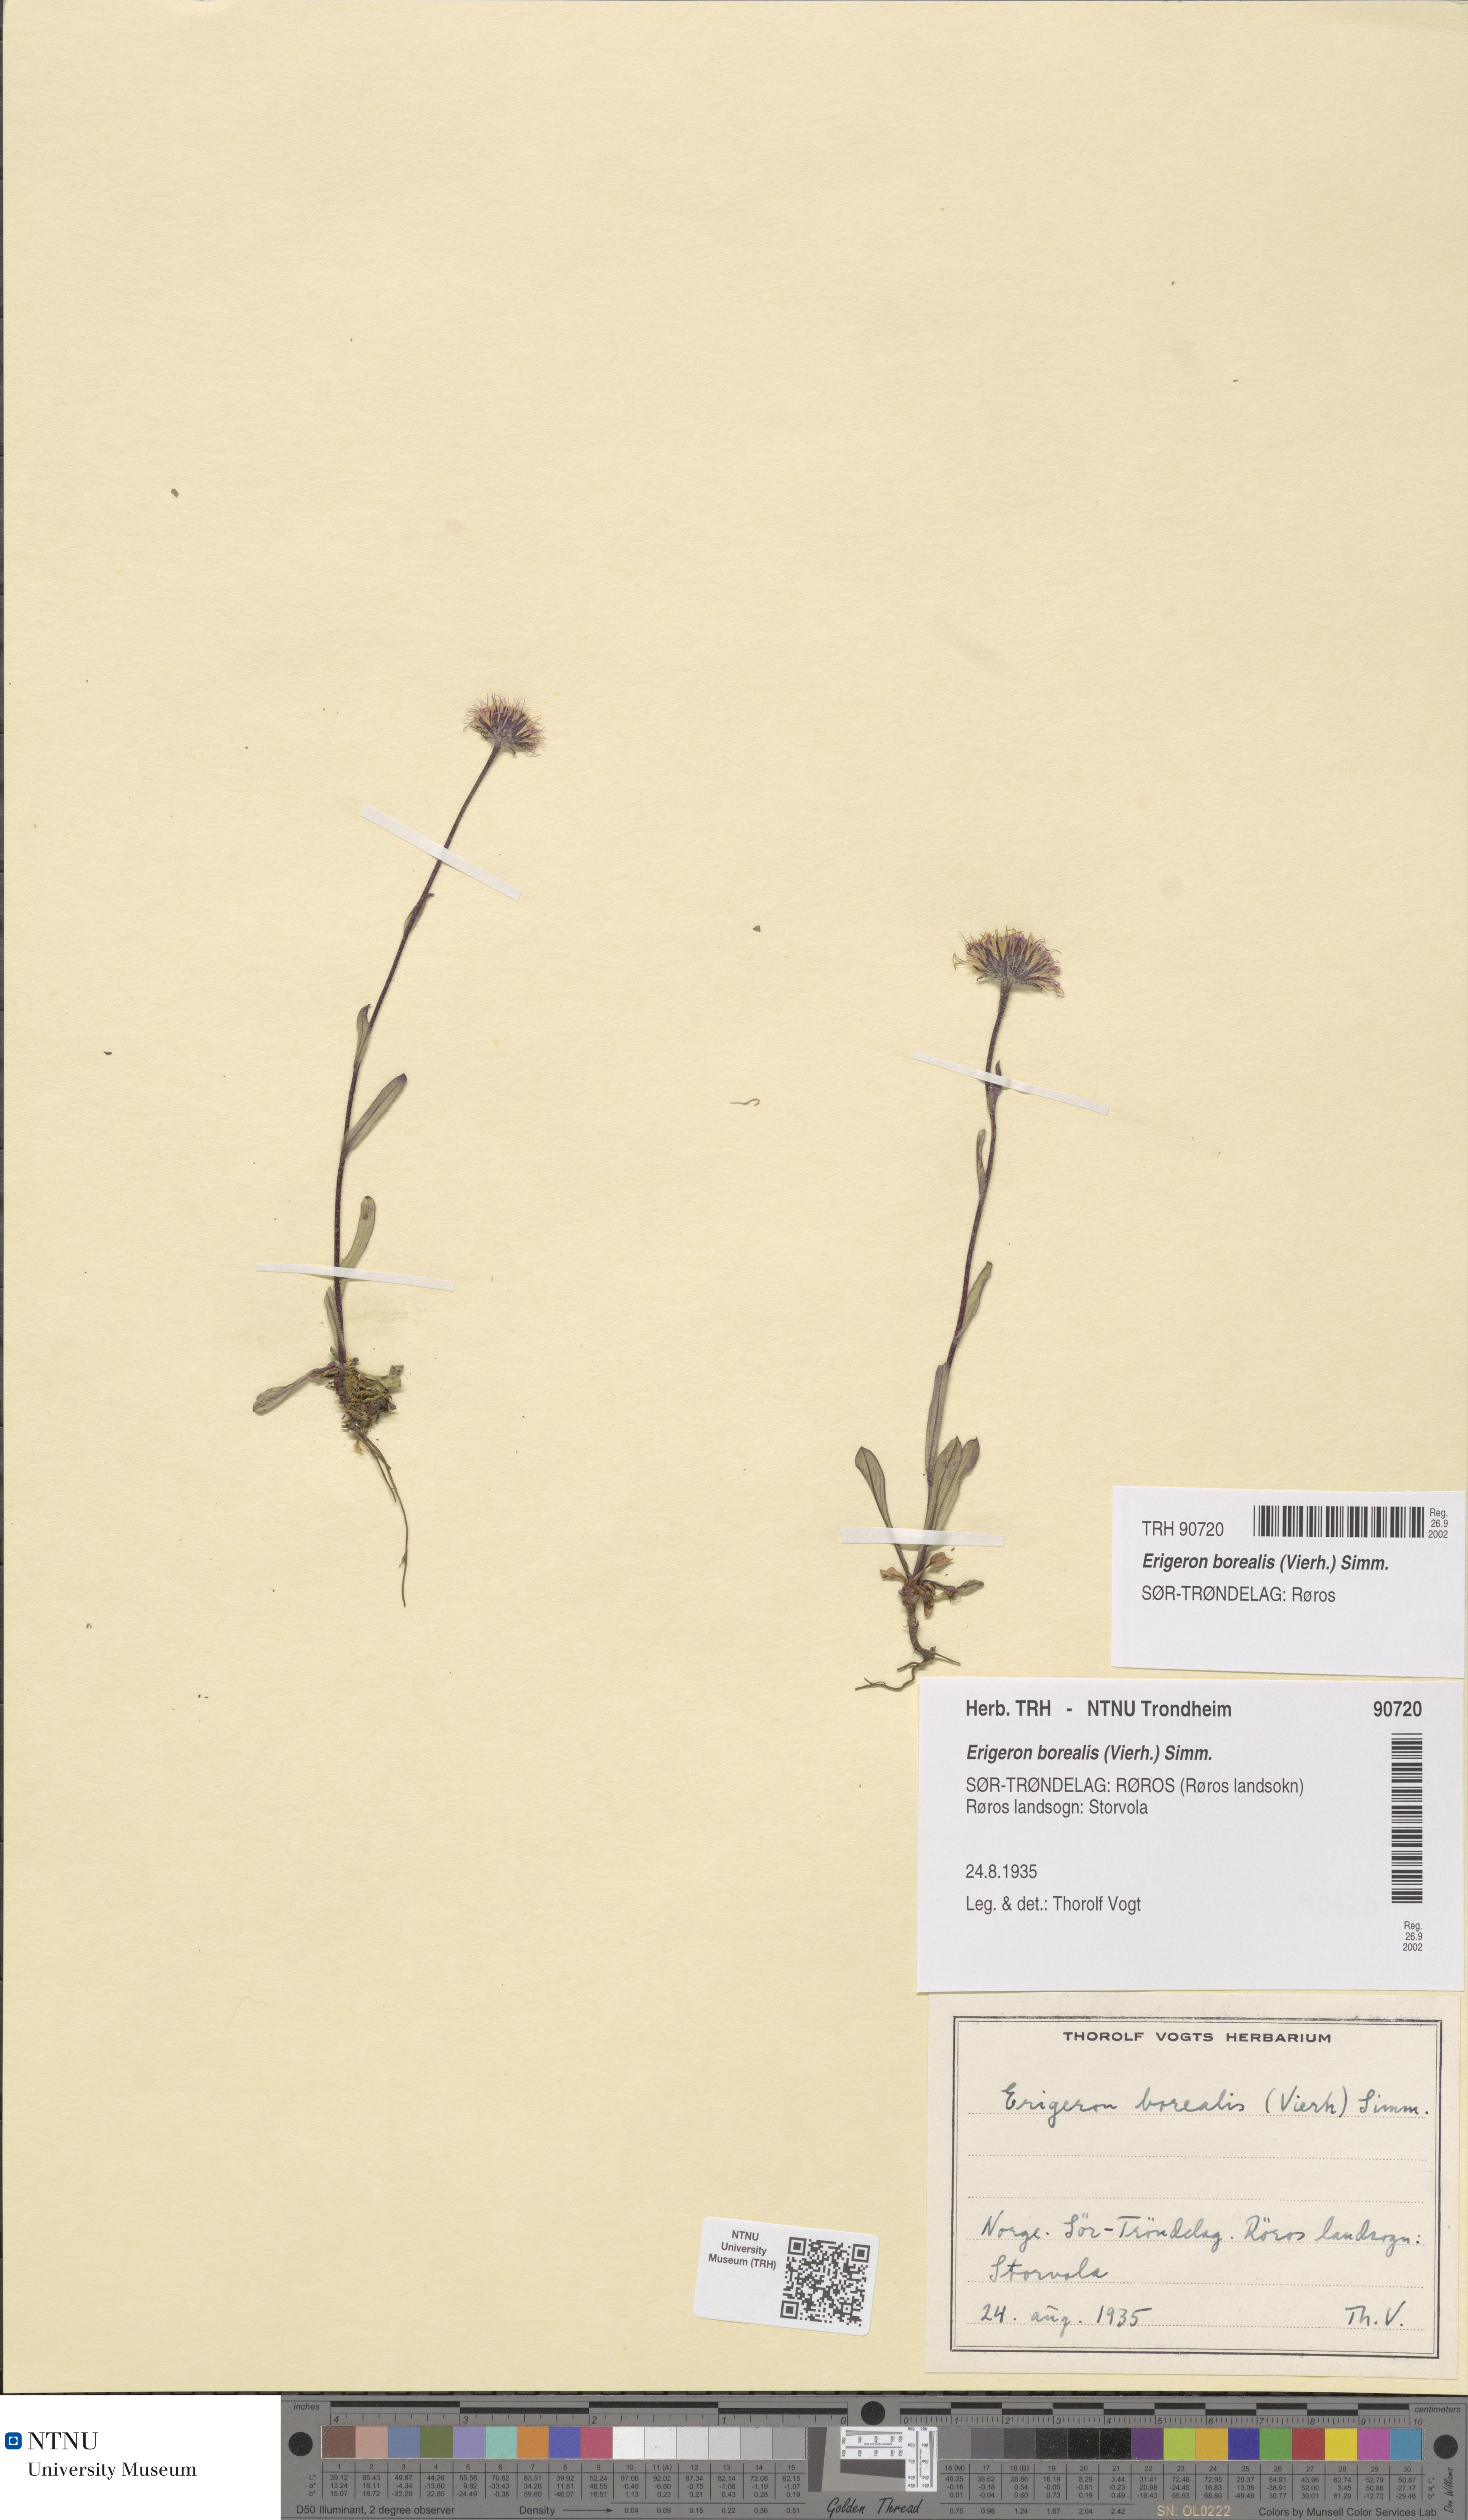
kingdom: Plantae
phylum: Tracheophyta
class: Magnoliopsida
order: Asterales
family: Asteraceae
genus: Erigeron
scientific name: Erigeron borealis
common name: Alpine fleabane
